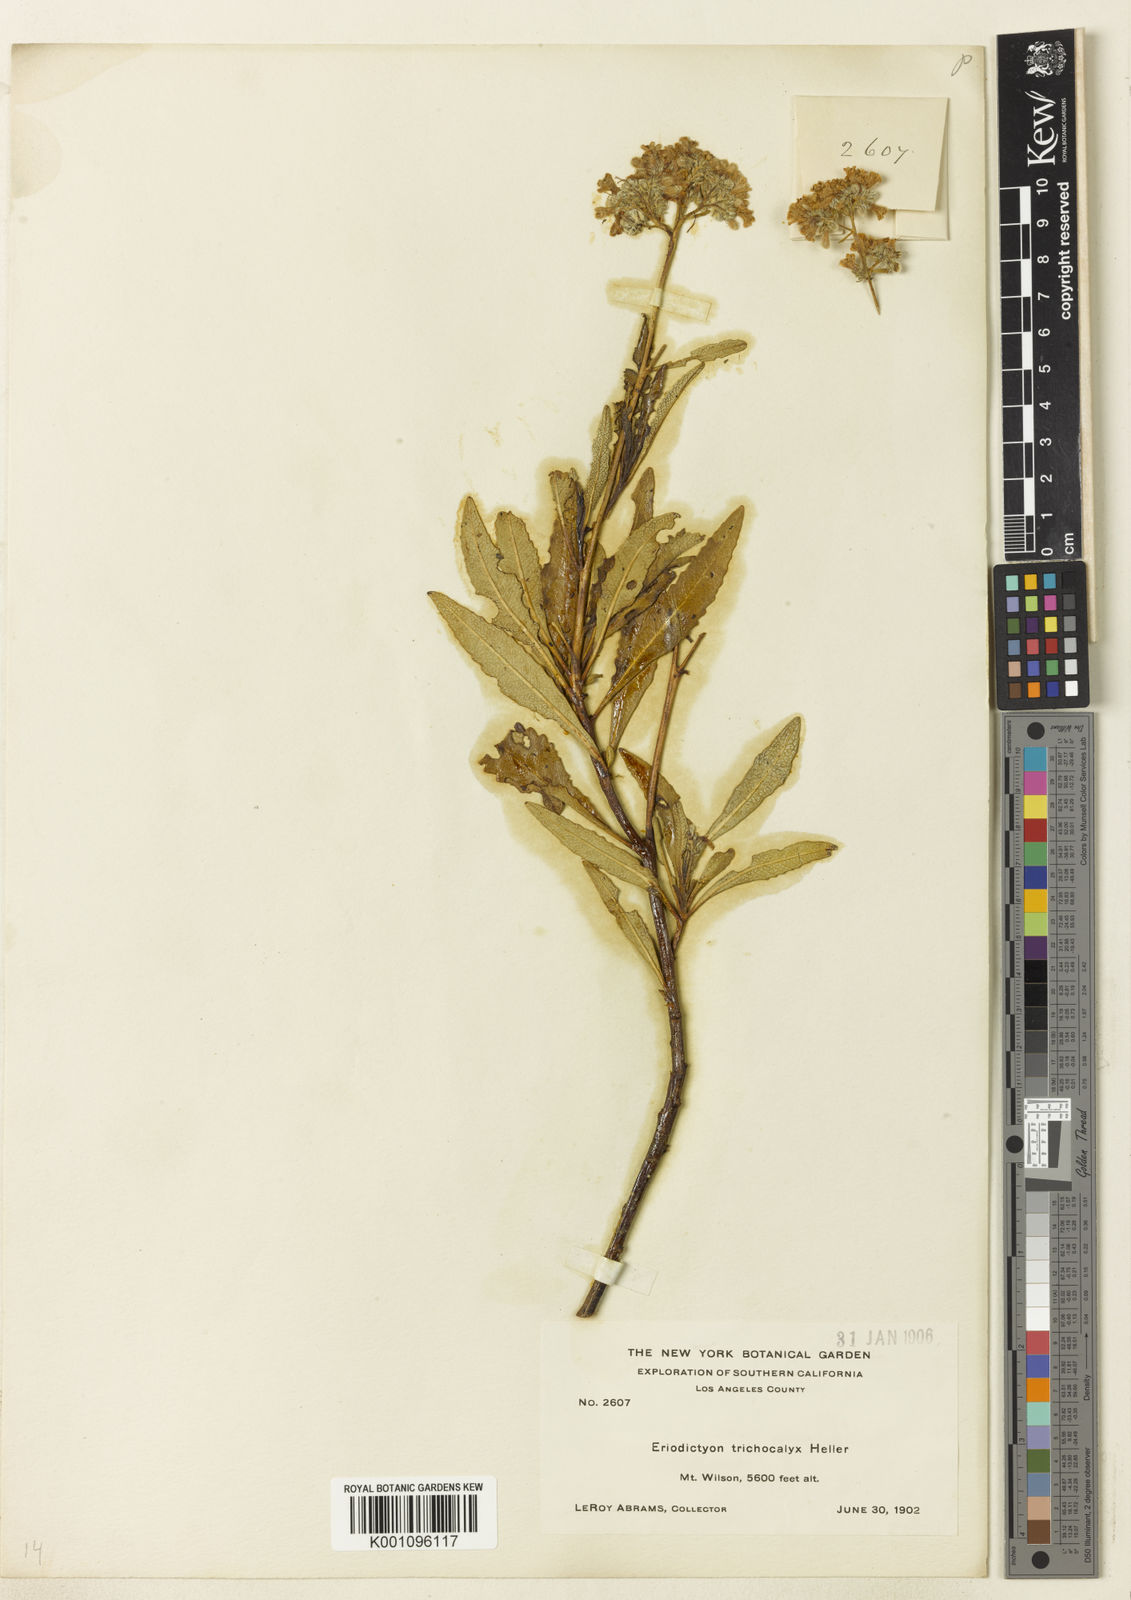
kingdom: Plantae
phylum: Tracheophyta
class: Magnoliopsida
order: Boraginales
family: Namaceae
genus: Eriodictyon
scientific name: Eriodictyon trichocalyx
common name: Hairy yerba-santa
